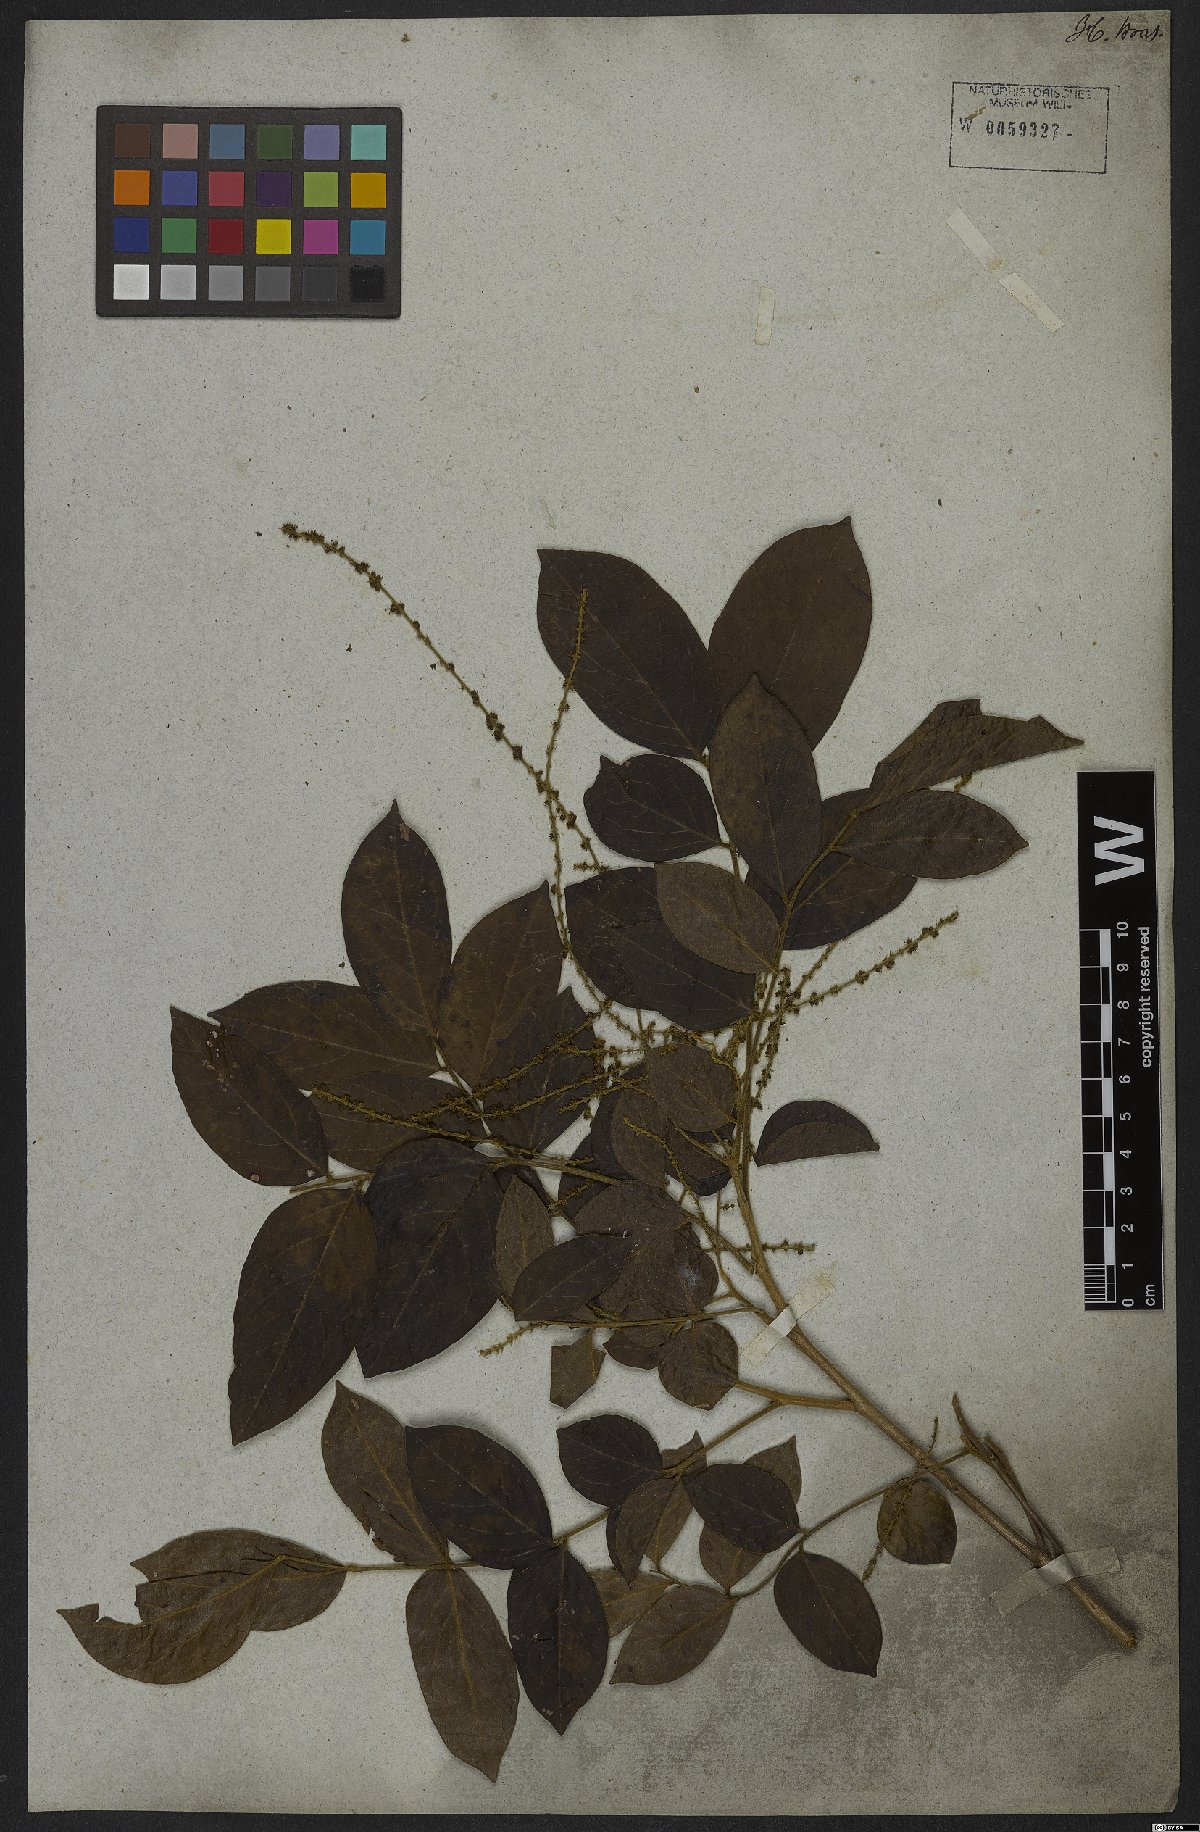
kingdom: Plantae
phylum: Tracheophyta
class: Magnoliopsida
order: Picramniales
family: Picramniaceae
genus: Picramnia
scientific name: Picramnia sellowii
